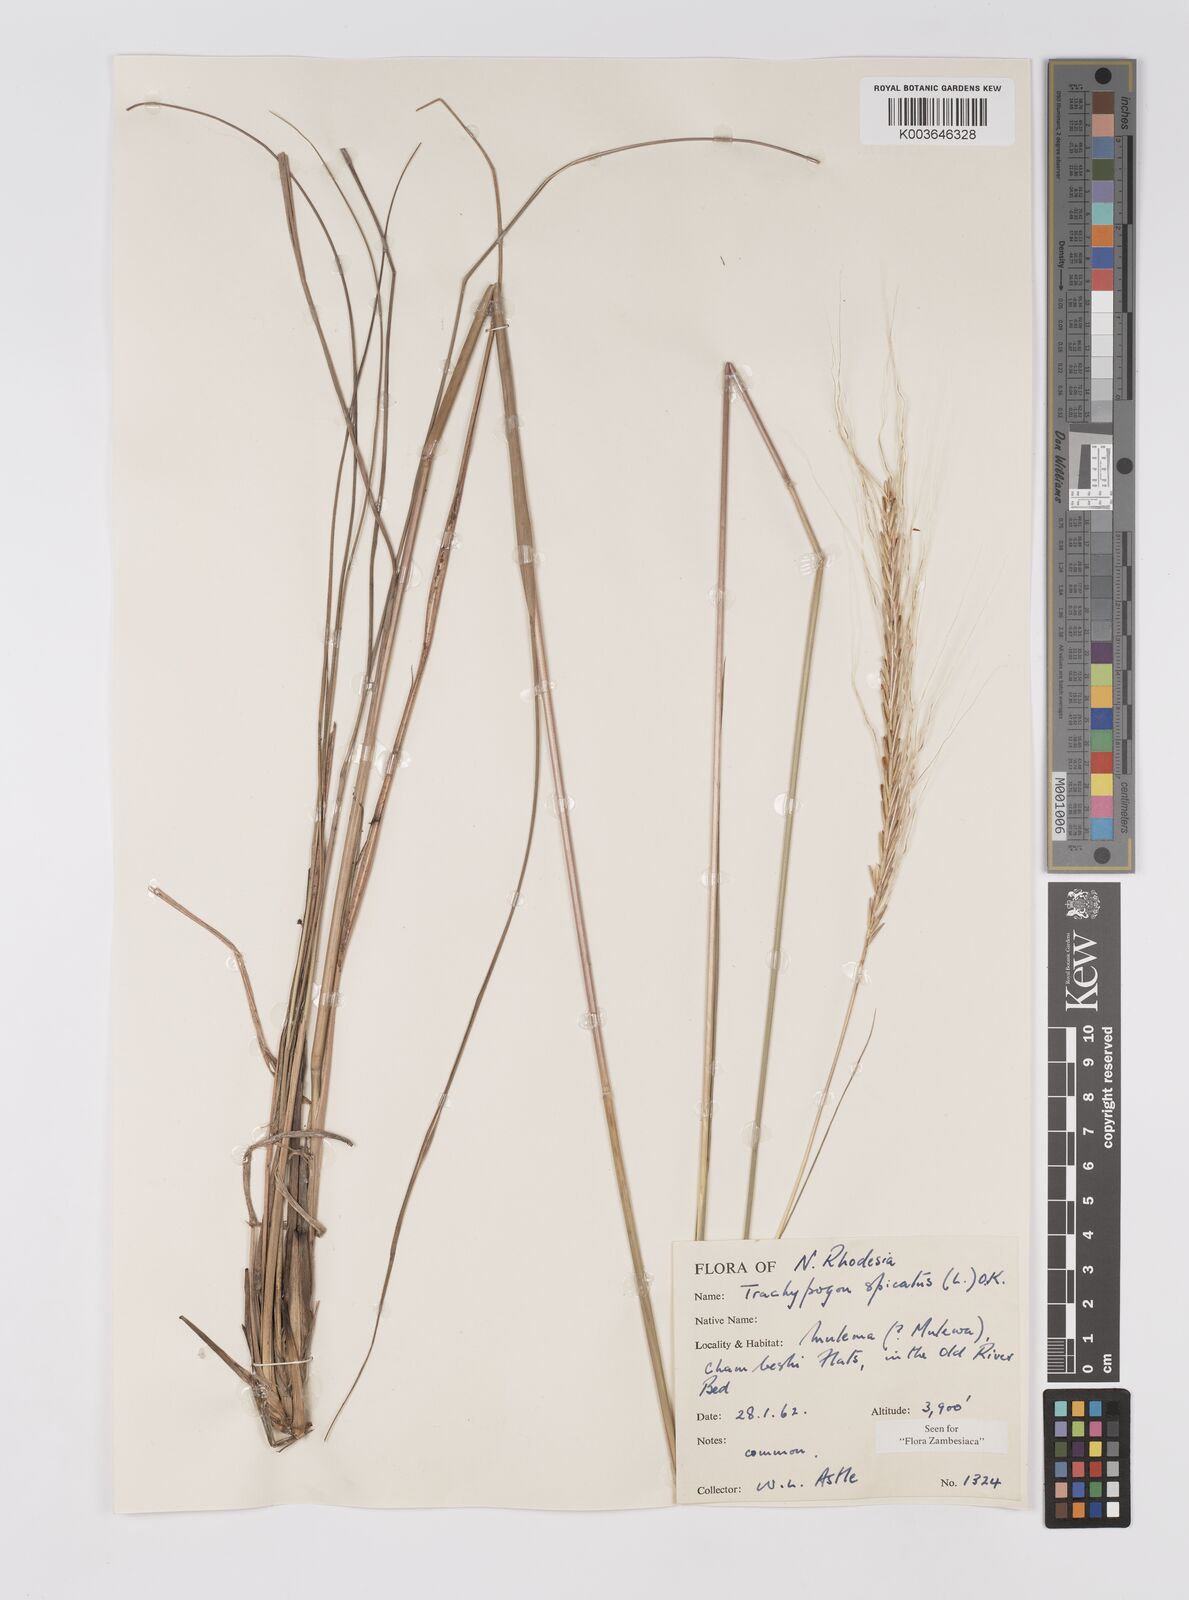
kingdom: Plantae
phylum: Tracheophyta
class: Liliopsida
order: Poales
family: Poaceae
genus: Trachypogon
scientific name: Trachypogon spicatus
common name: Crinkle-awn
